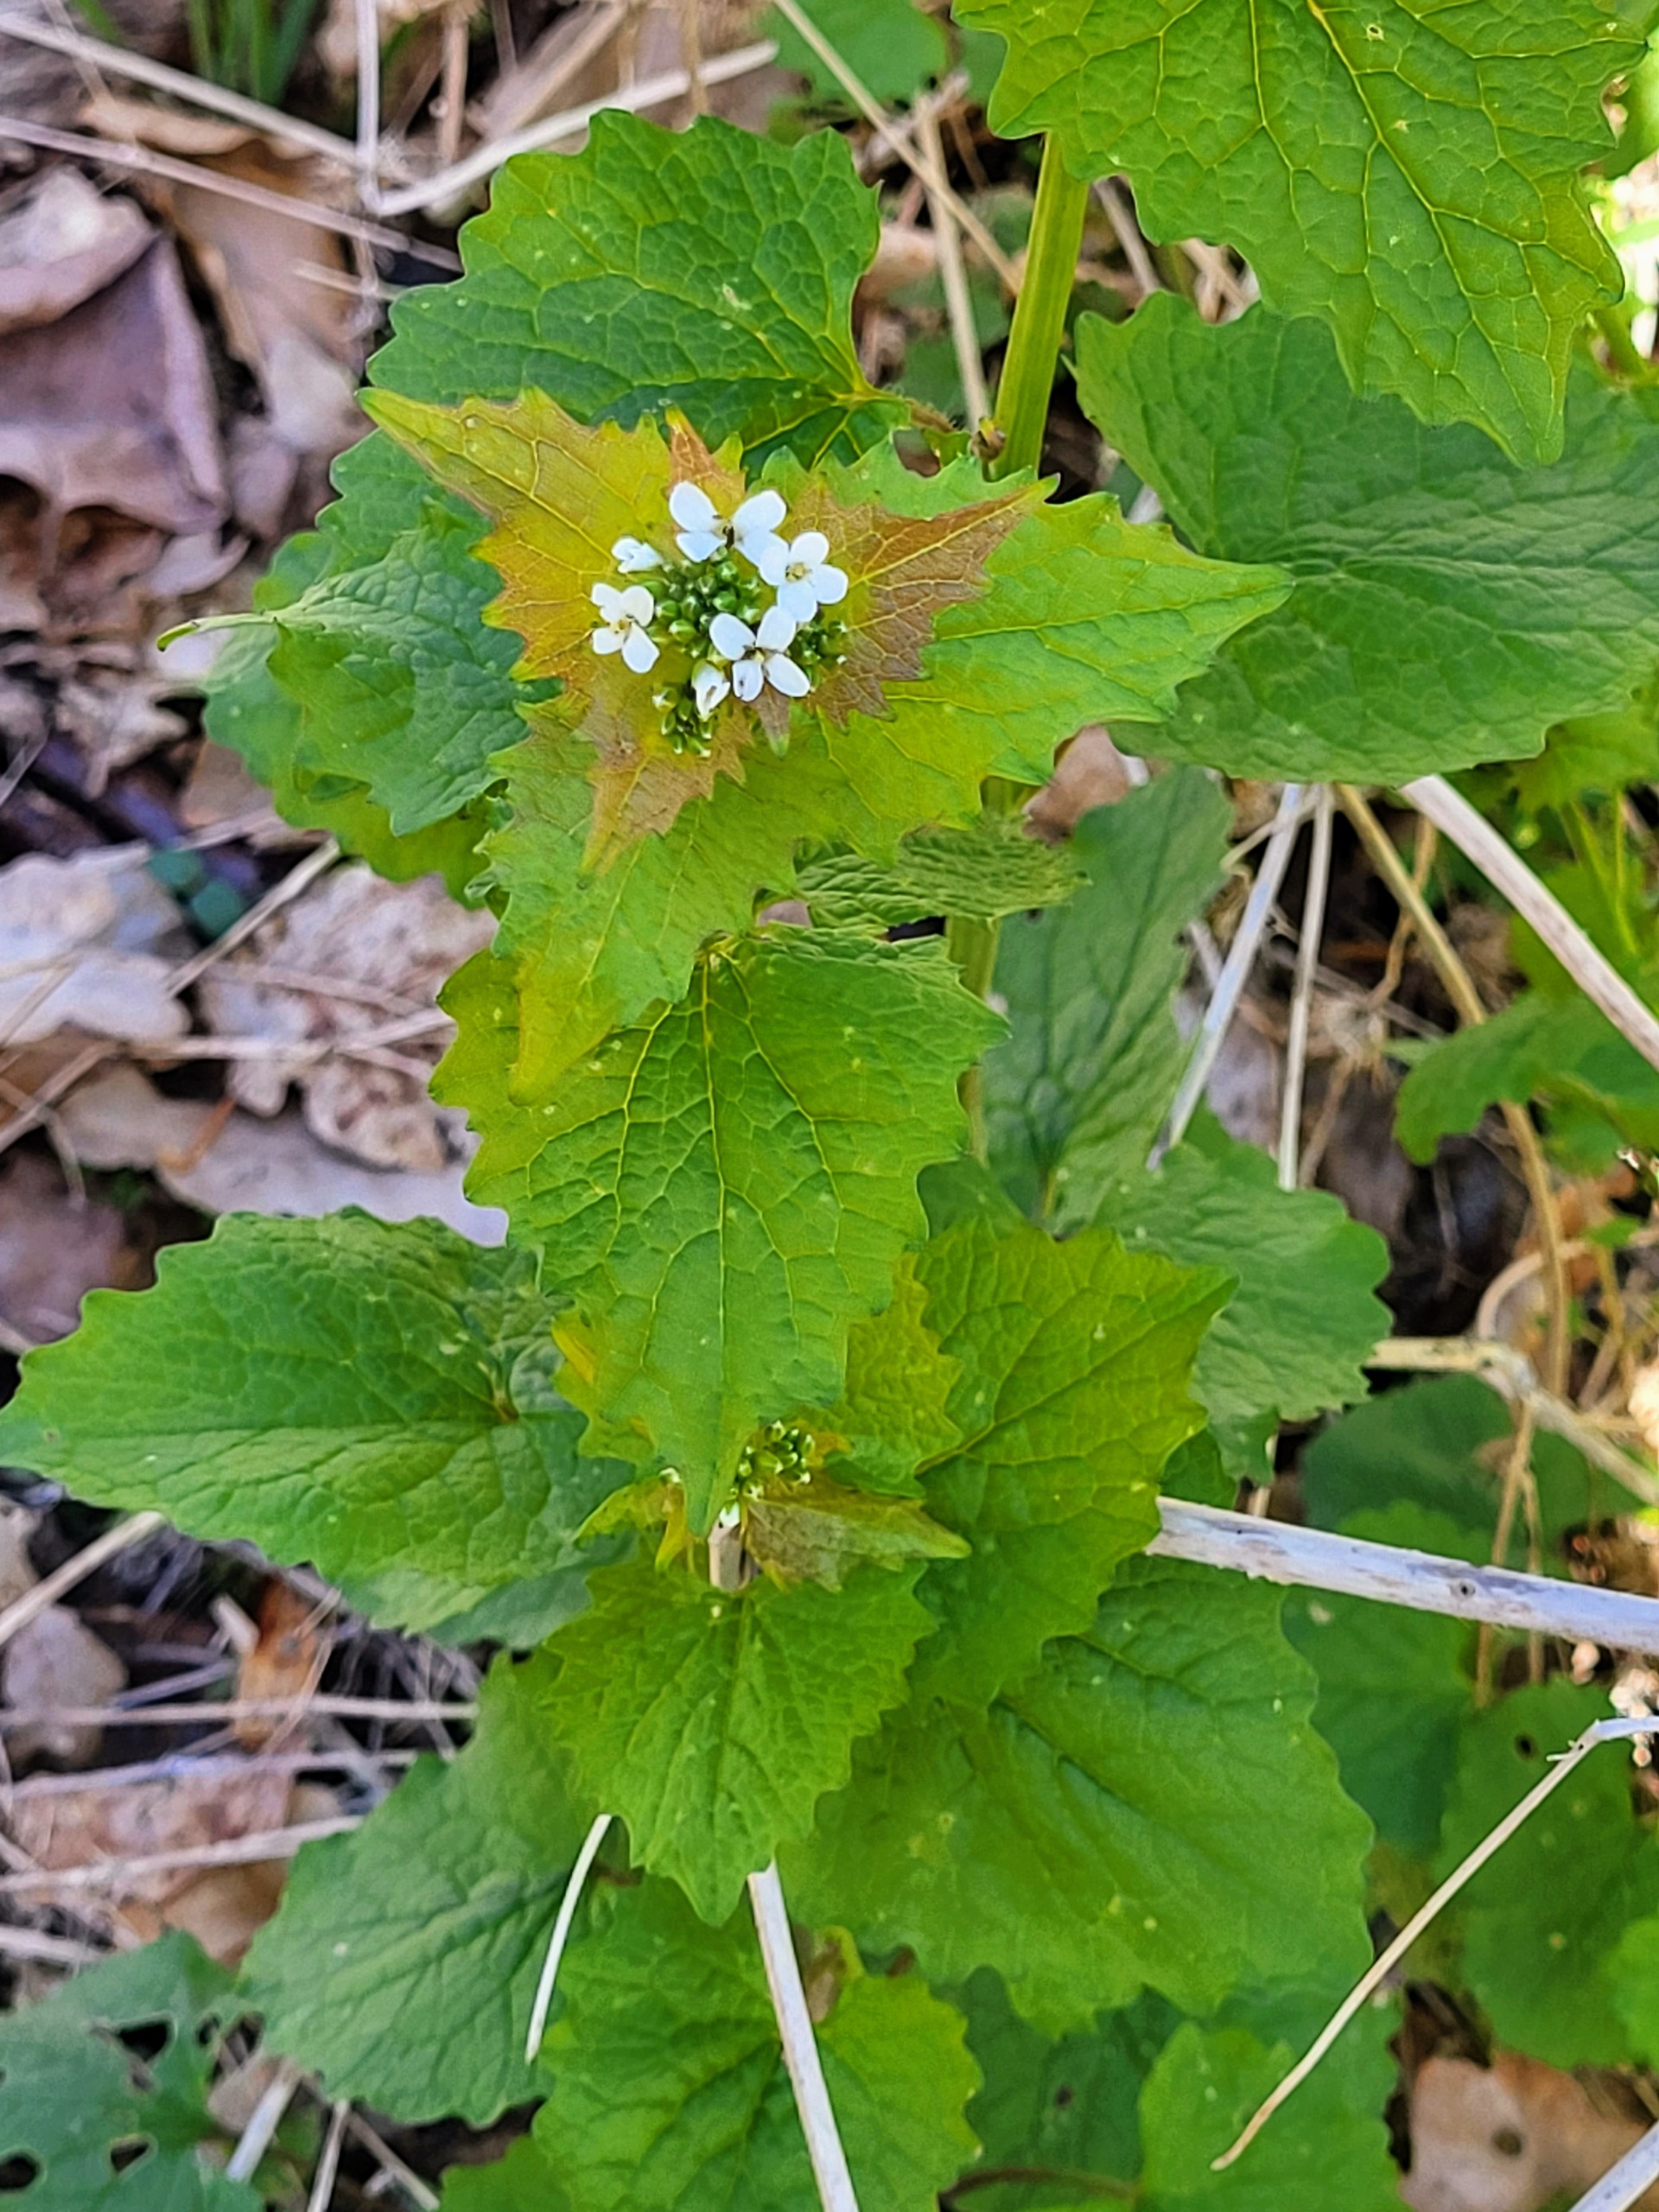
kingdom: Plantae
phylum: Tracheophyta
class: Magnoliopsida
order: Brassicales
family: Brassicaceae
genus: Alliaria
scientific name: Alliaria petiolata
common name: Løgkarse
